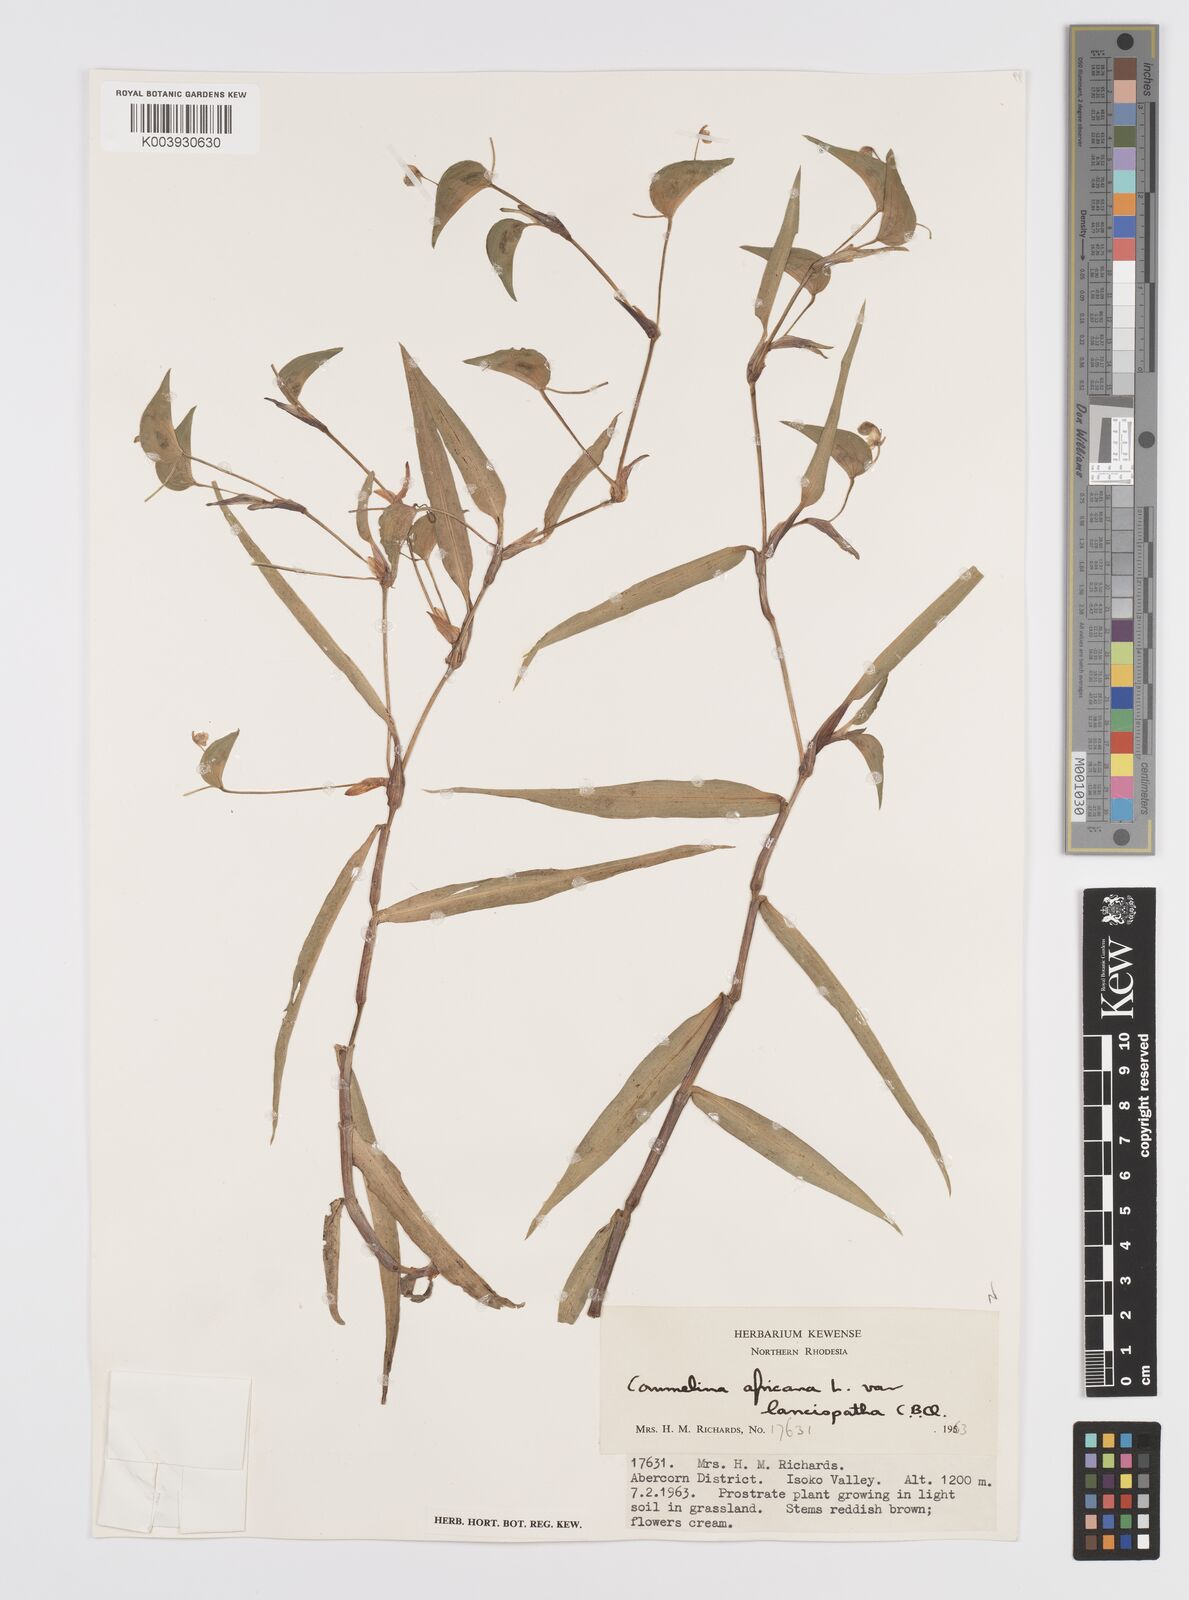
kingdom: Plantae
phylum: Tracheophyta
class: Liliopsida
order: Commelinales
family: Commelinaceae
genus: Commelina
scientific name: Commelina africana
